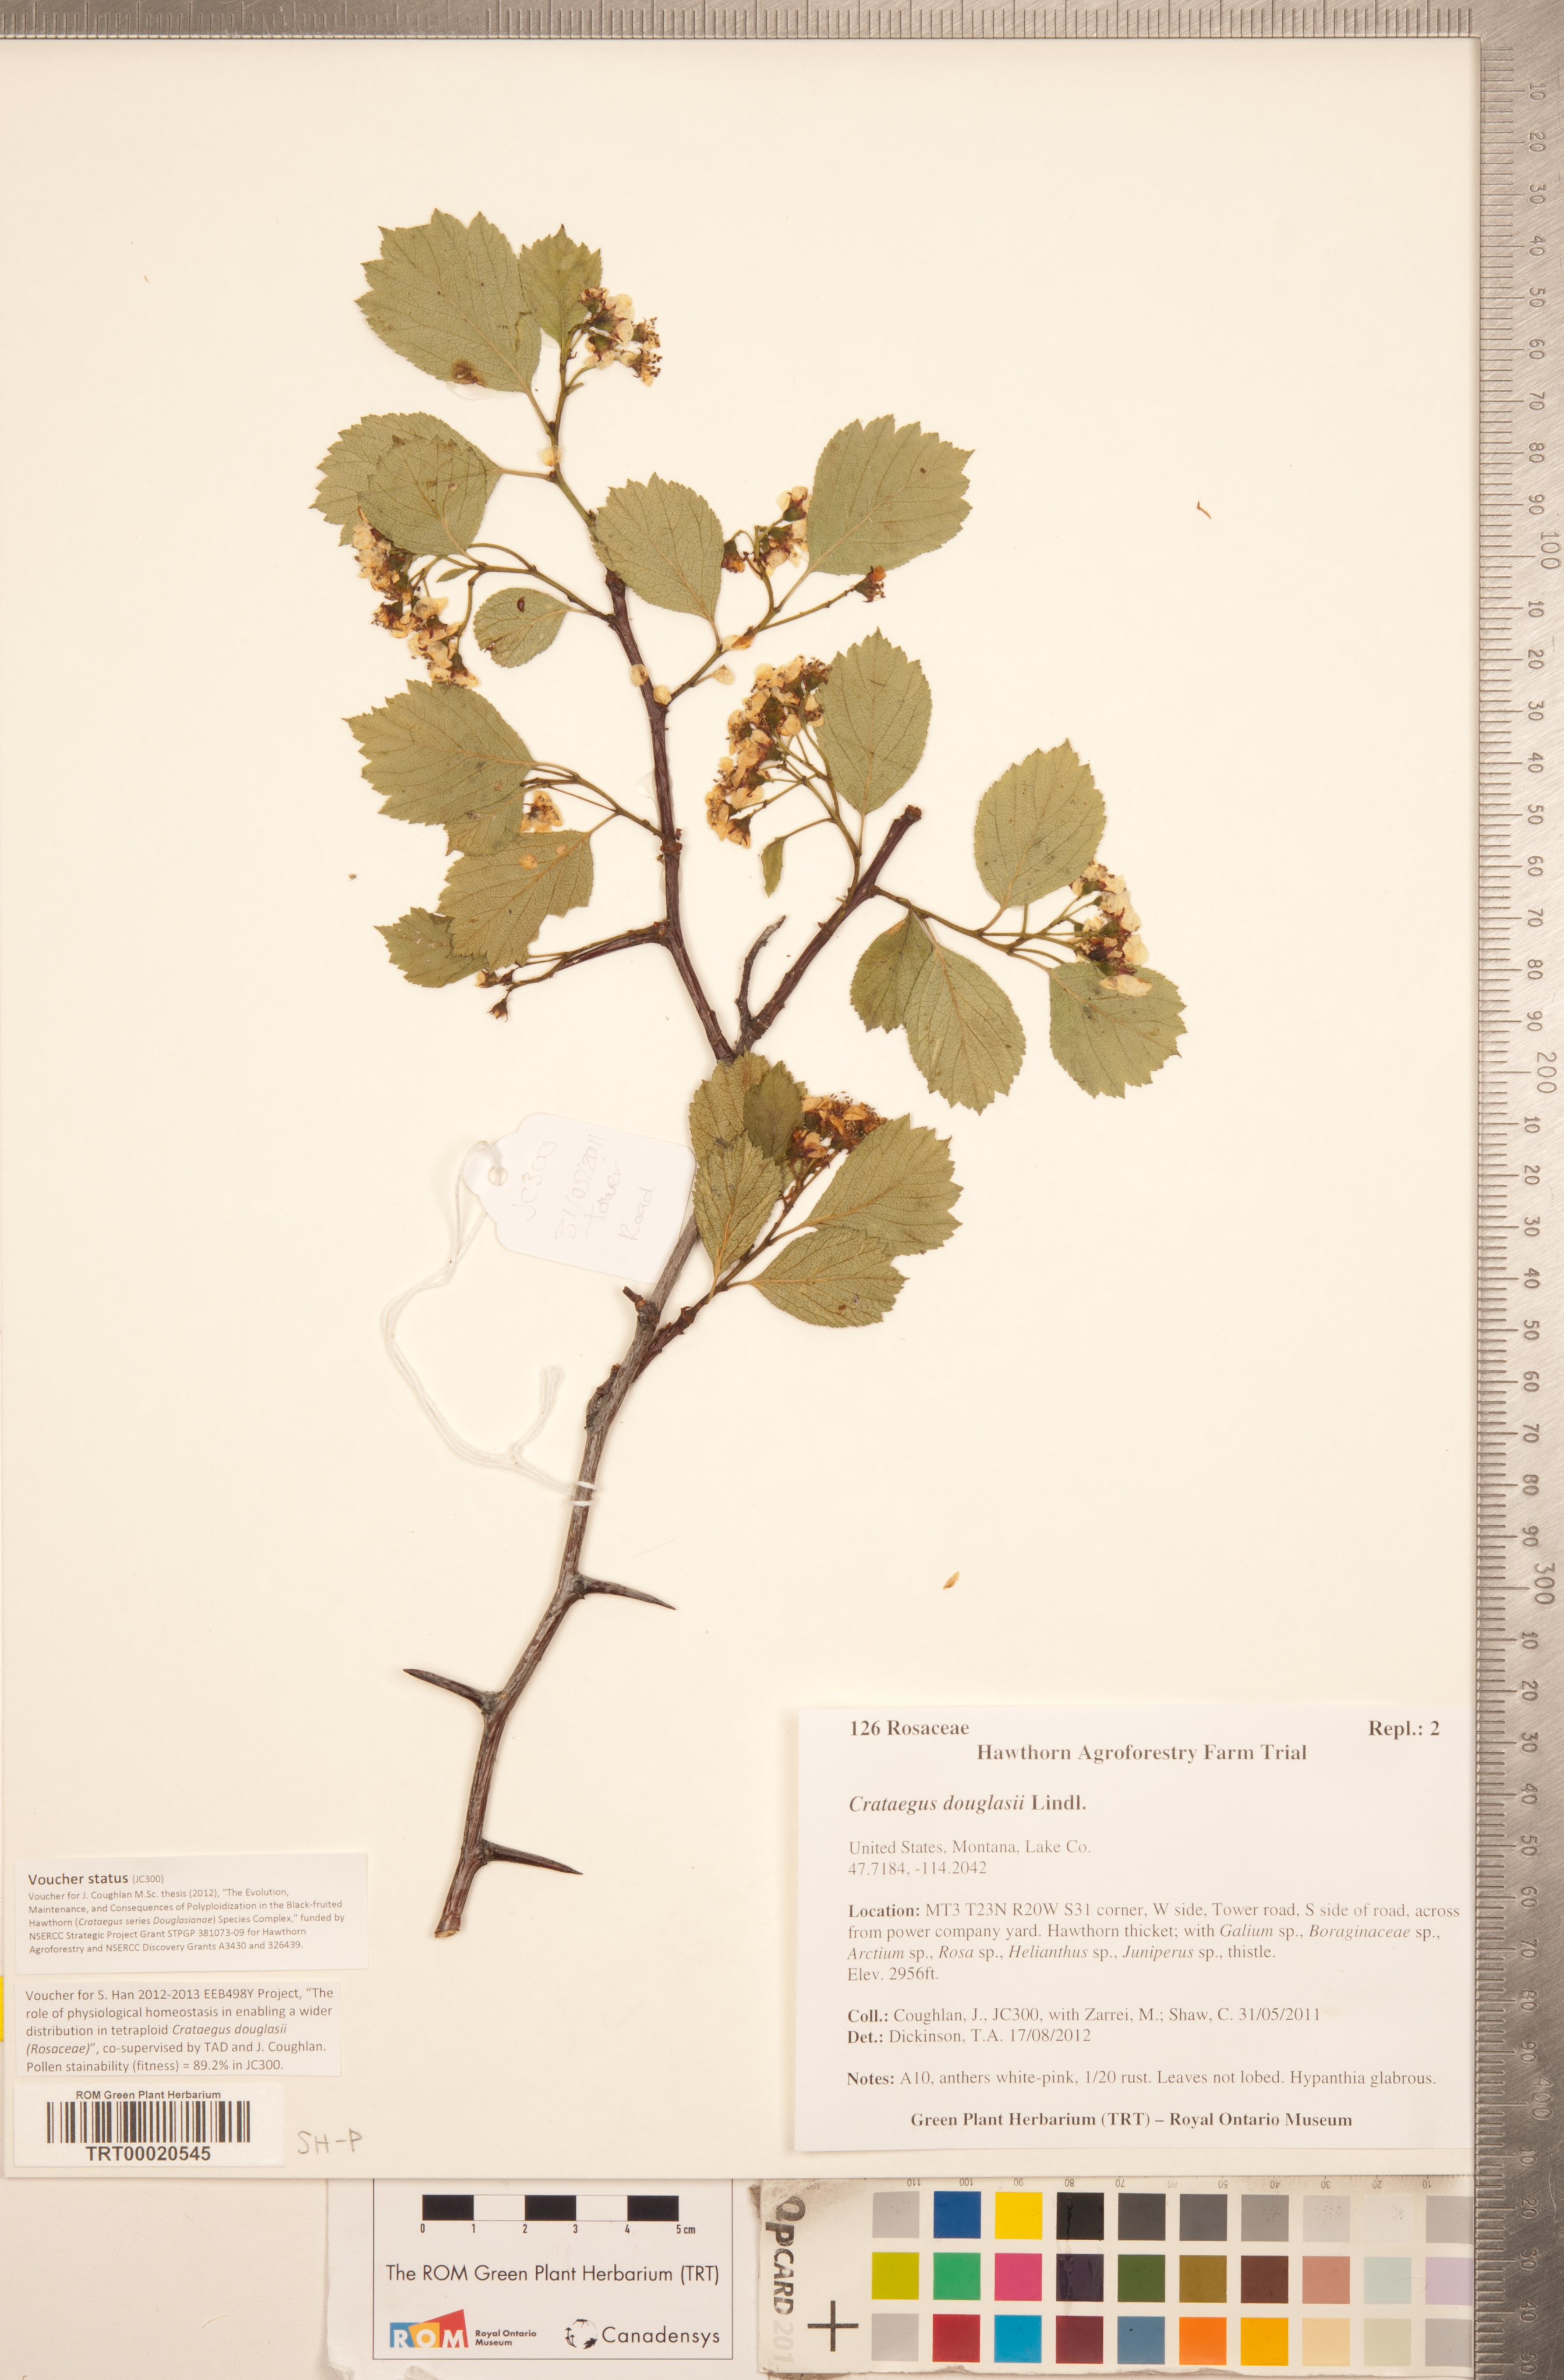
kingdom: Plantae
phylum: Tracheophyta
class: Magnoliopsida
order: Rosales
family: Rosaceae
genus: Crataegus
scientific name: Crataegus douglasii
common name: Black hawthorn
